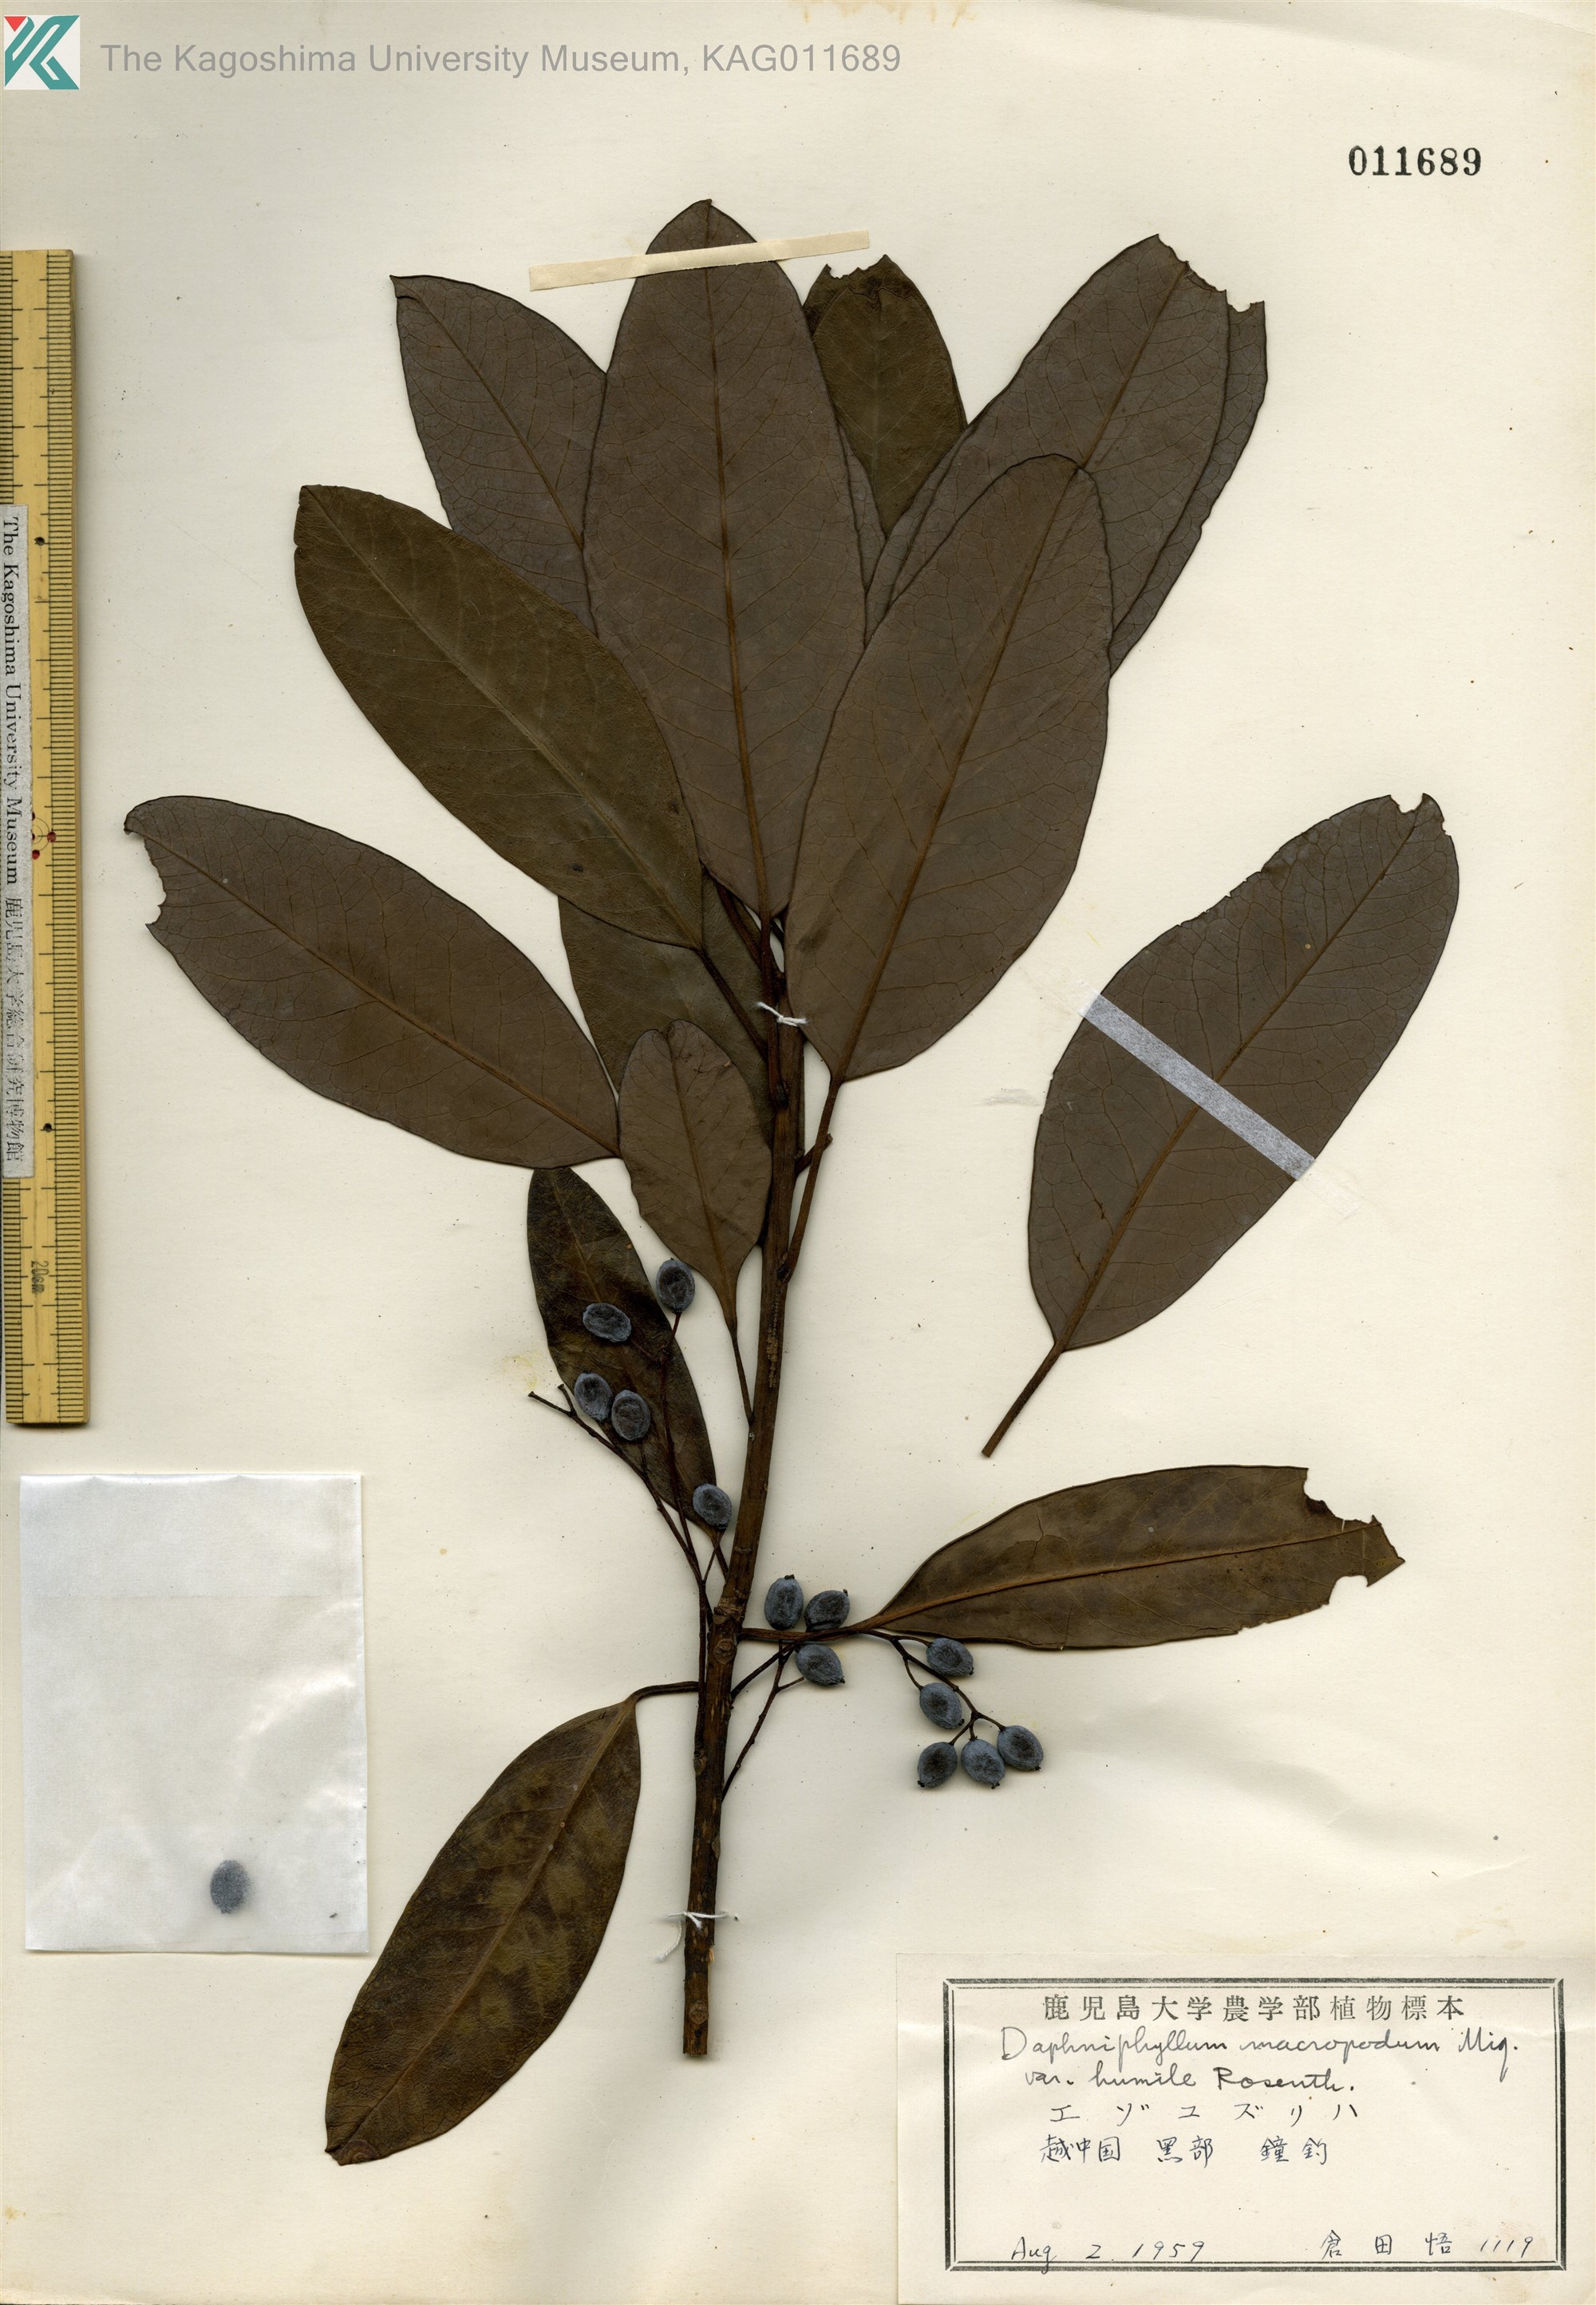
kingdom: Plantae
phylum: Tracheophyta
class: Magnoliopsida
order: Saxifragales
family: Daphniphyllaceae
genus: Daphniphyllum
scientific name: Daphniphyllum macropodum
